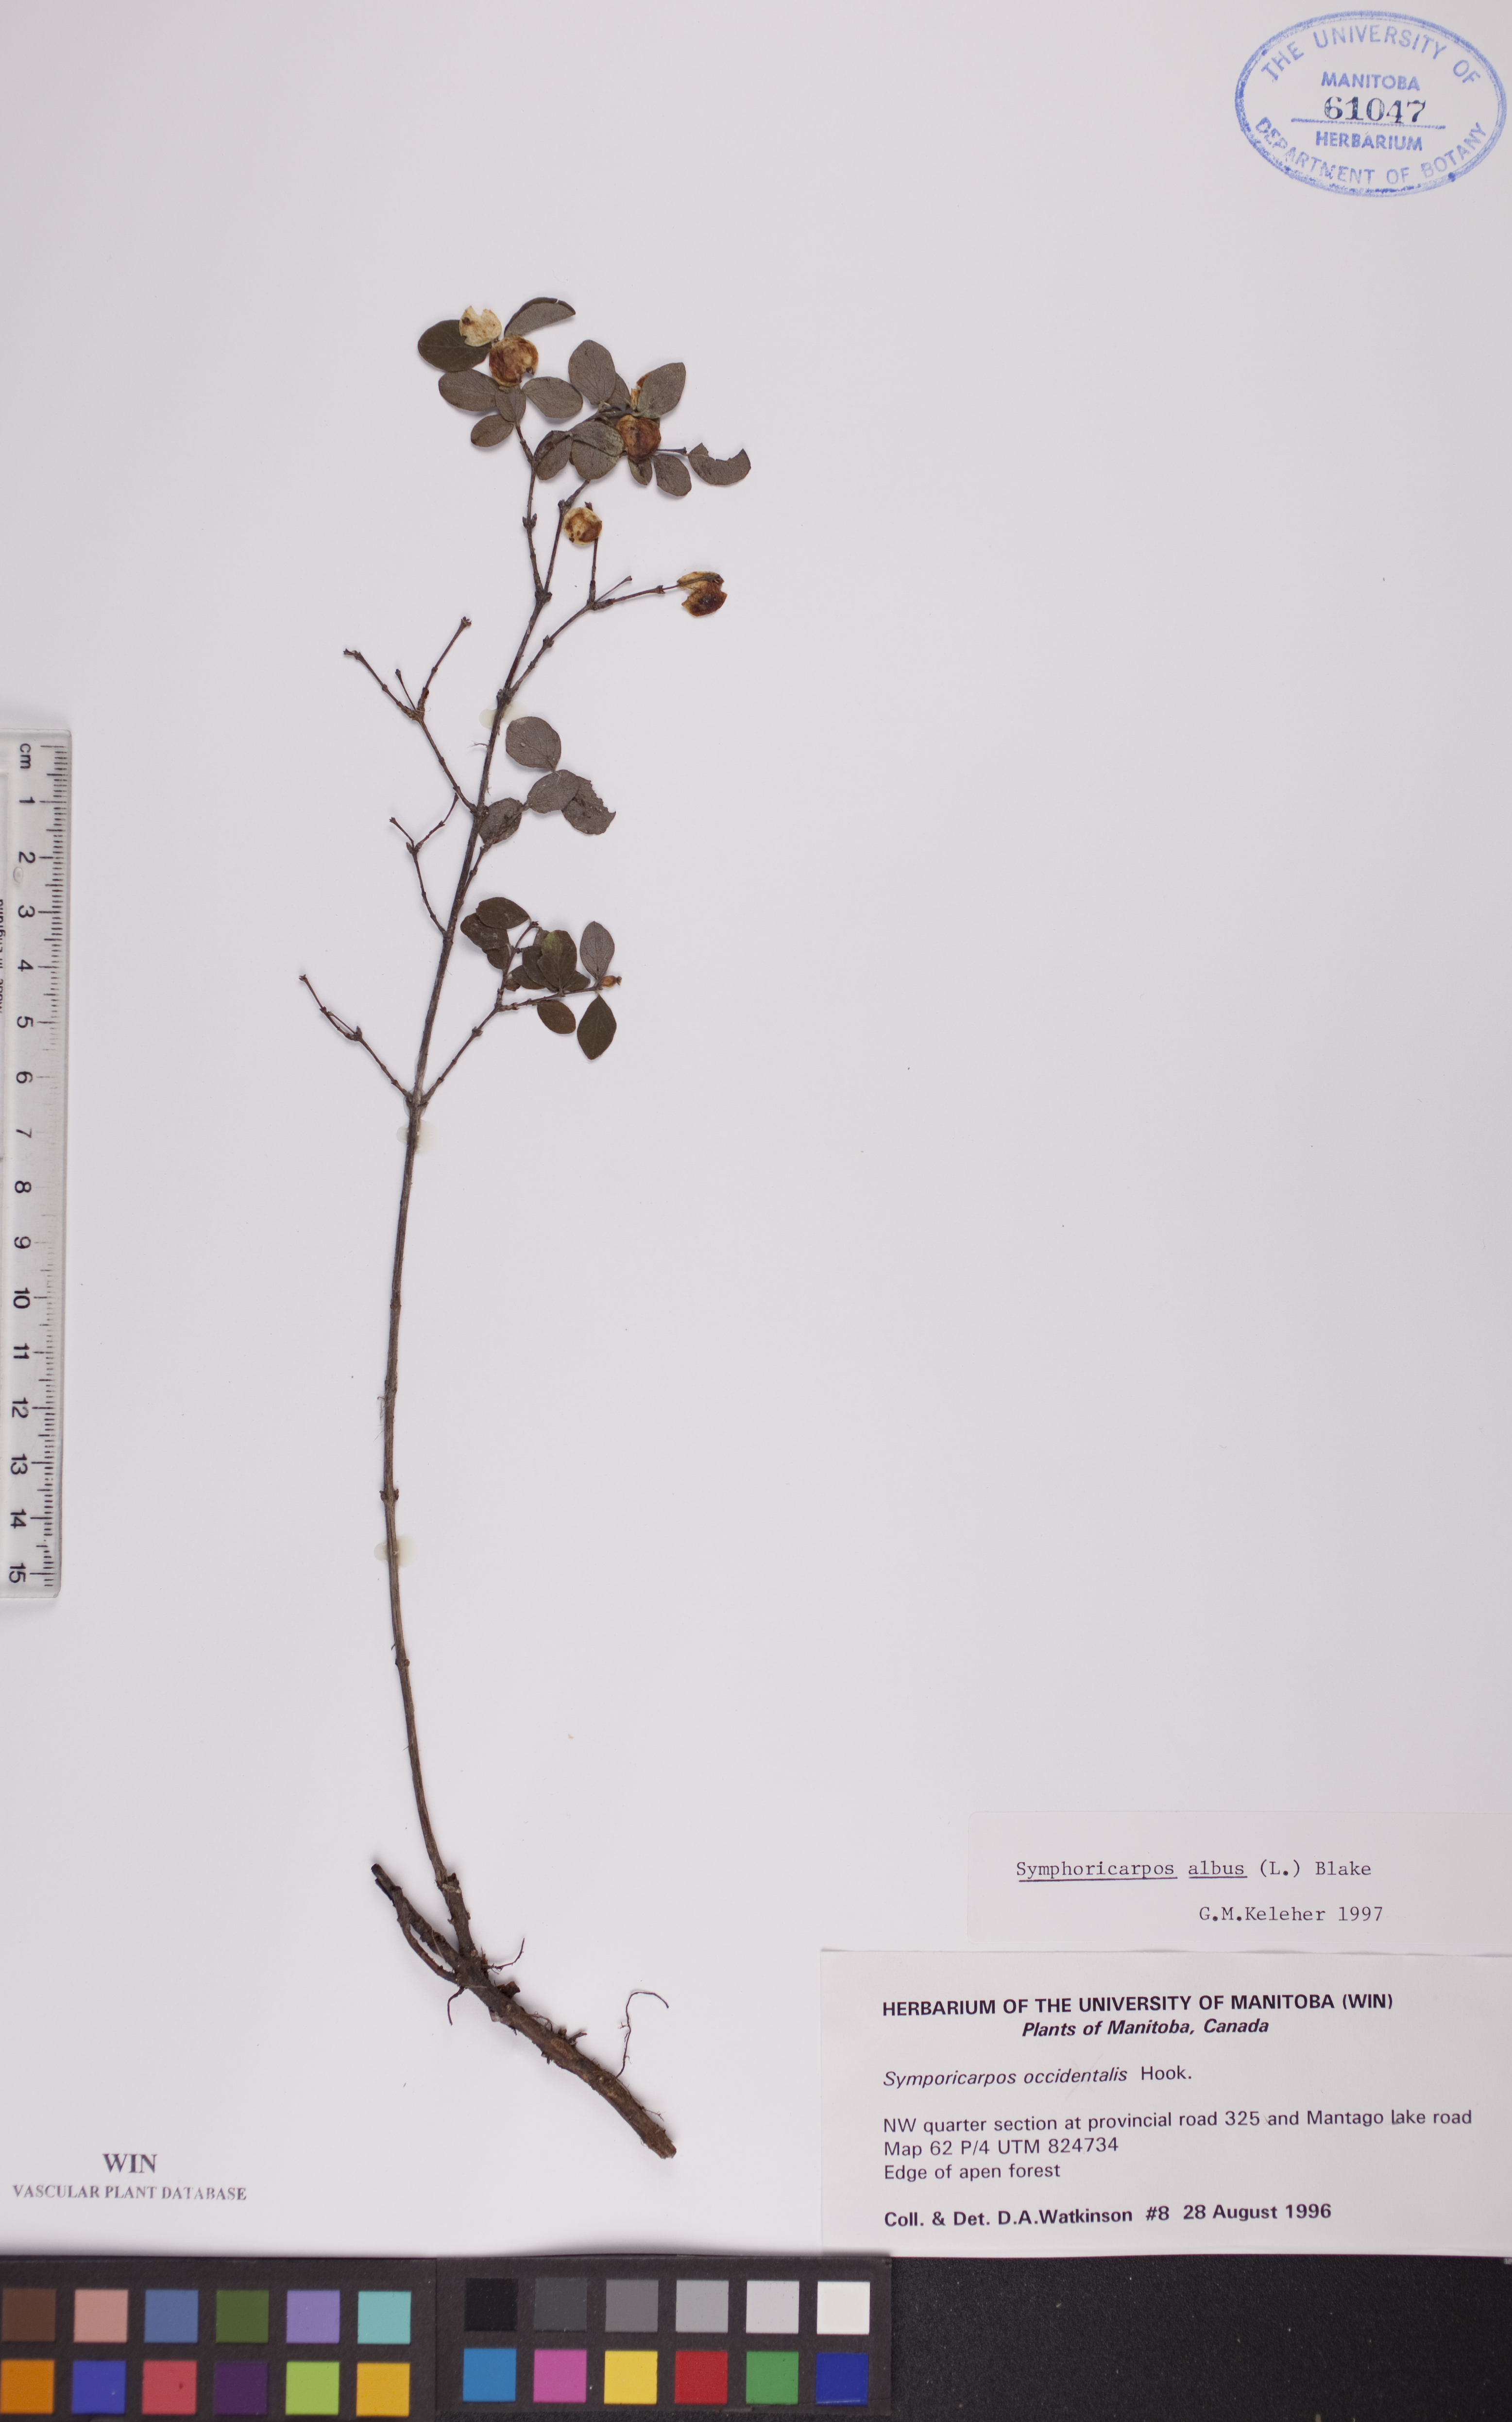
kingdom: Plantae
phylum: Tracheophyta
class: Magnoliopsida
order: Dipsacales
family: Caprifoliaceae
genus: Symphoricarpos
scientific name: Symphoricarpos albus
